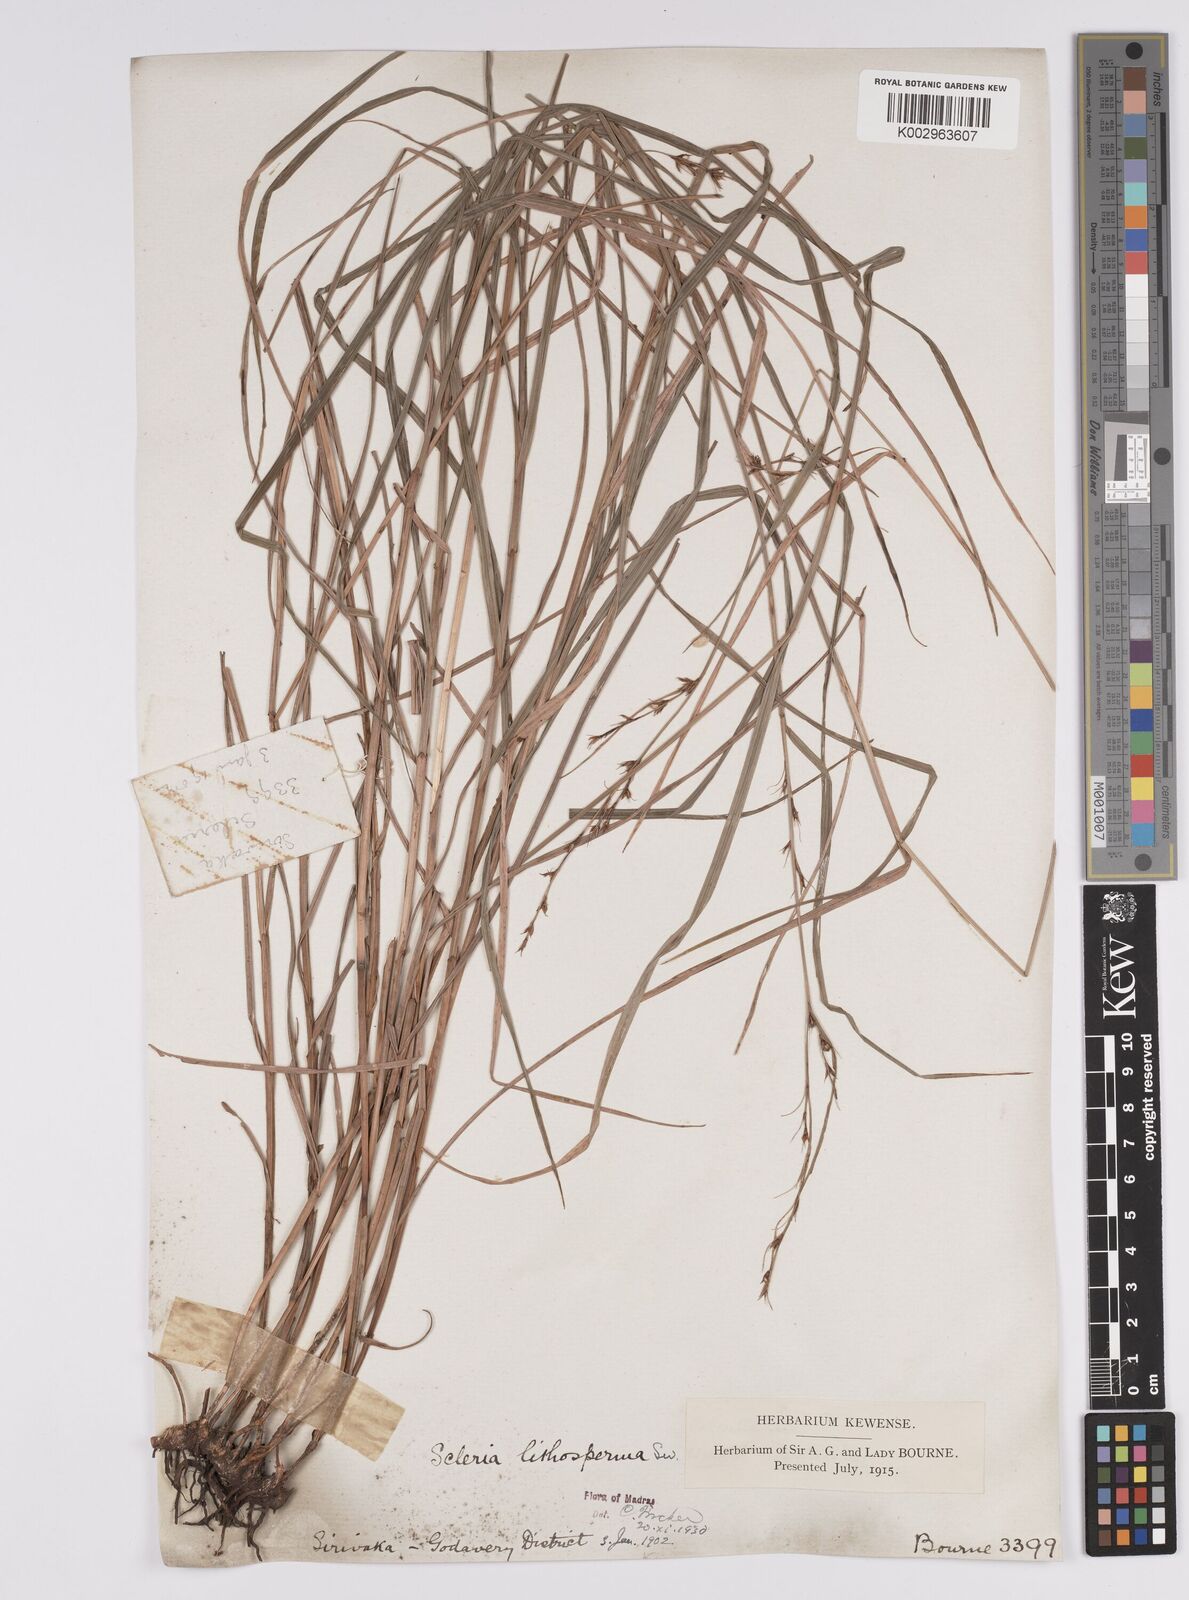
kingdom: Plantae
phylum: Tracheophyta
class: Liliopsida
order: Poales
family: Cyperaceae
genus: Scleria
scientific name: Scleria lithosperma
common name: Florida keys nut-rush
